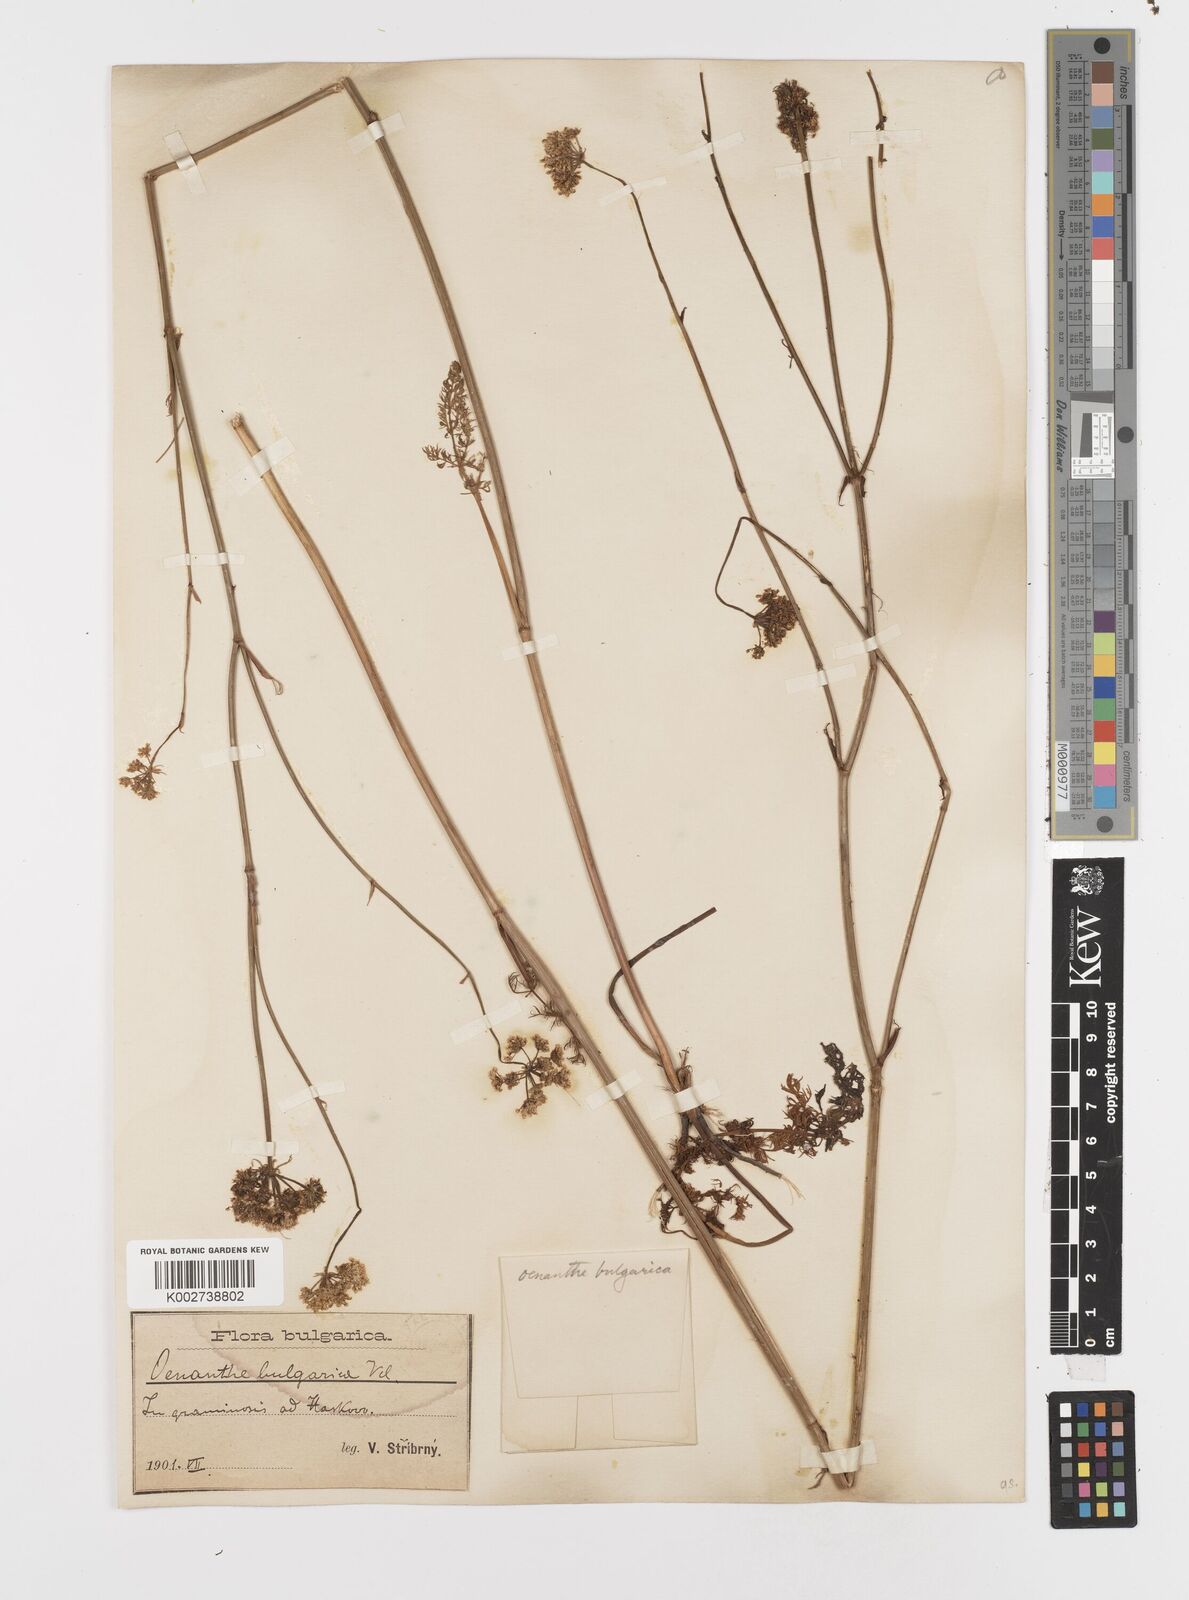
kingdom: Plantae
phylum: Tracheophyta
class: Magnoliopsida
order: Apiales
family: Apiaceae
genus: Oenanthe
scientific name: Oenanthe millefolia
